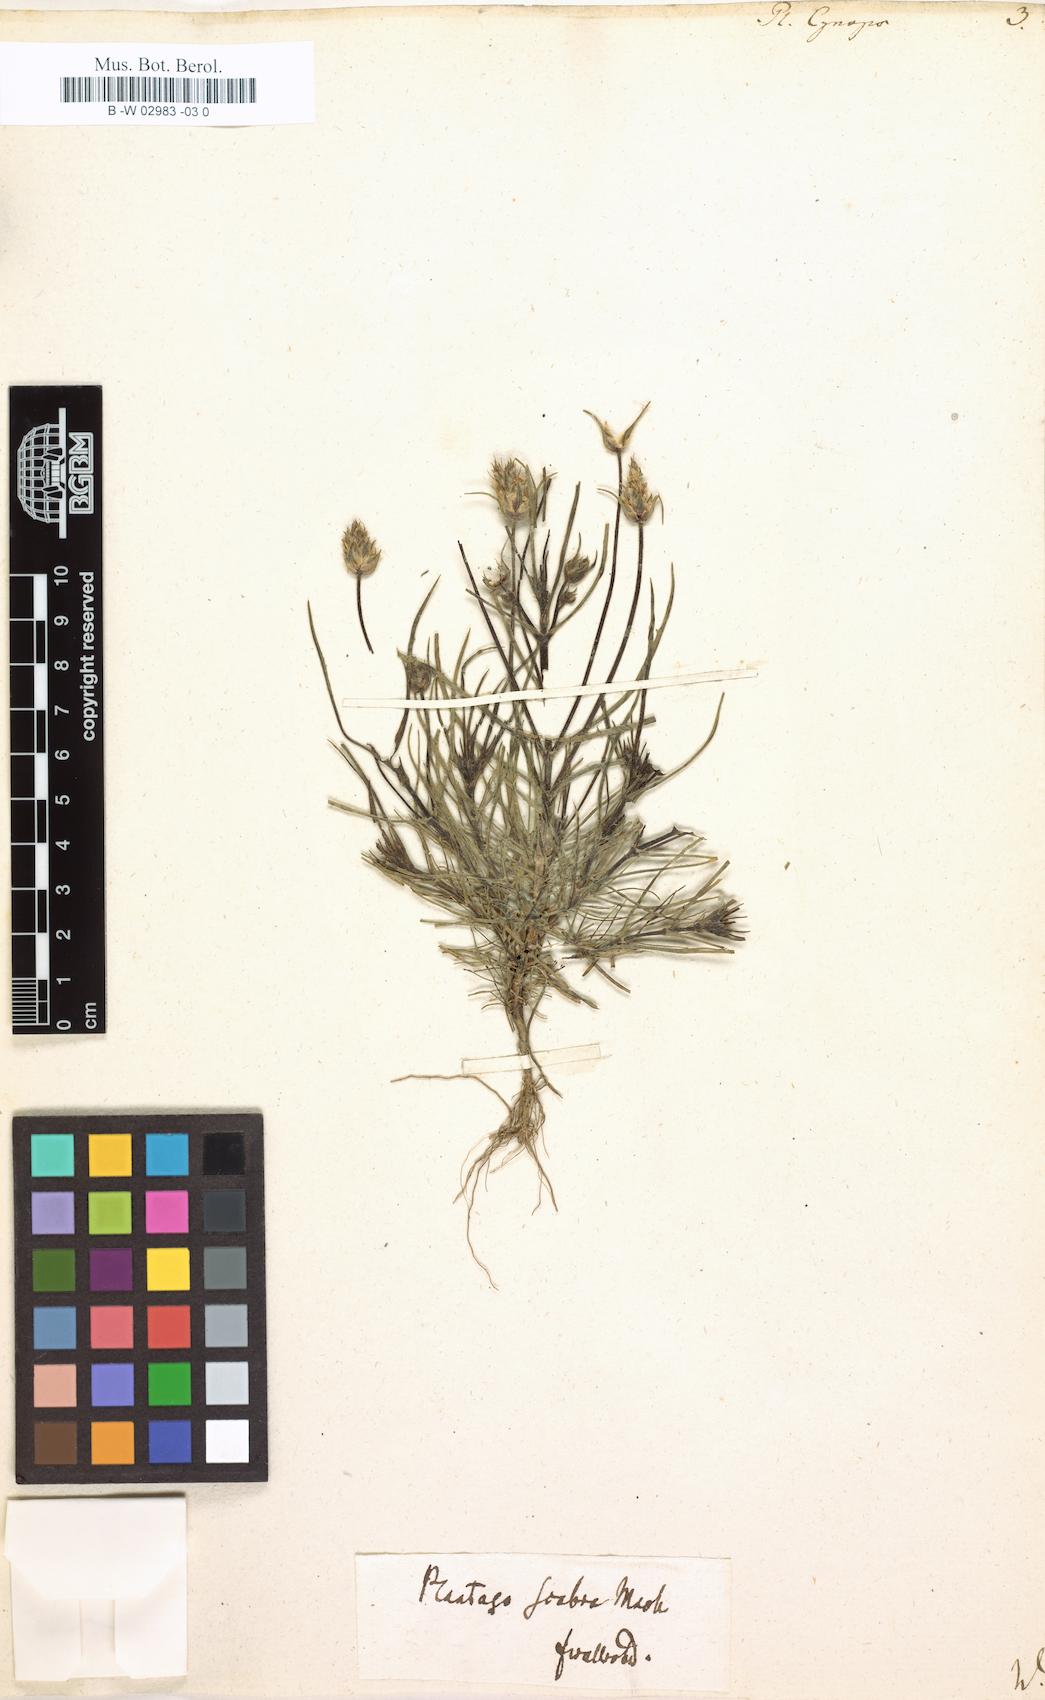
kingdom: Plantae
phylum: Tracheophyta
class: Magnoliopsida
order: Lamiales
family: Plantaginaceae
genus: Plantago
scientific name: Plantago sempervirens
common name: Shrubby plantain
